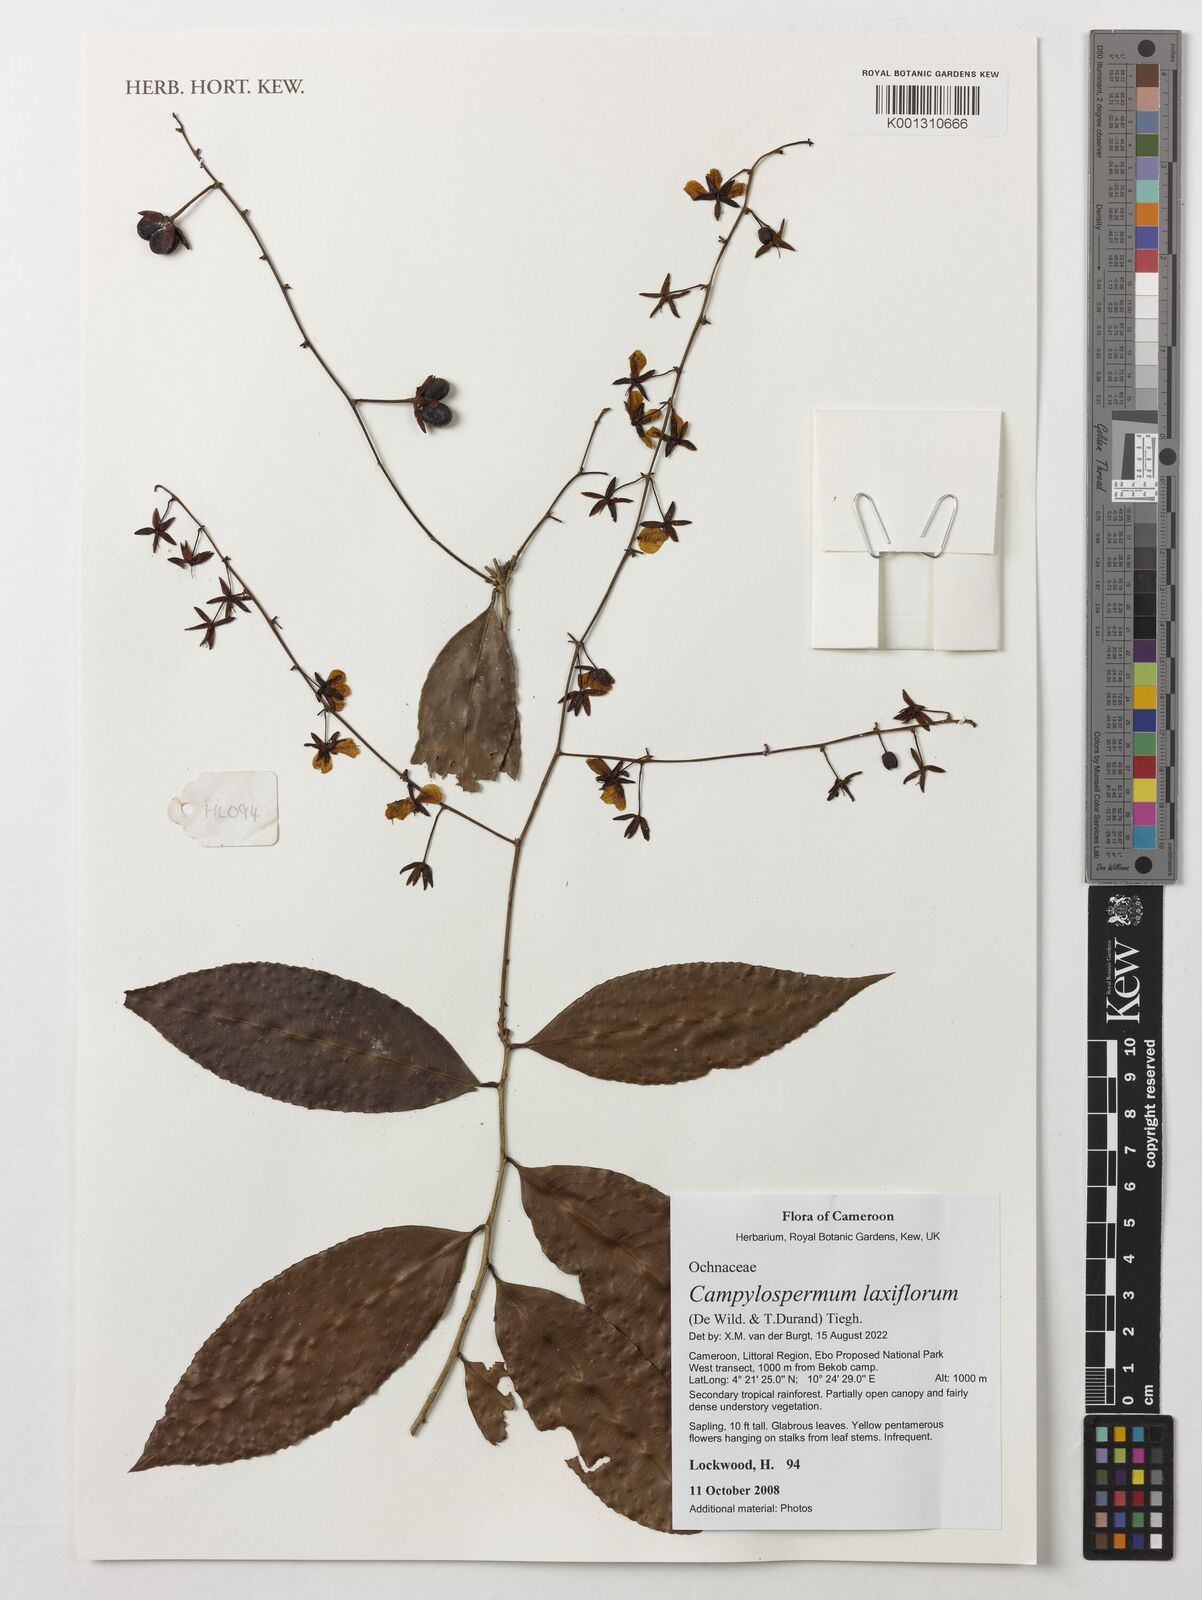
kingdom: Plantae
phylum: Tracheophyta
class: Magnoliopsida
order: Malpighiales
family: Ochnaceae
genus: Campylospermum
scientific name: Campylospermum laxiflorum
